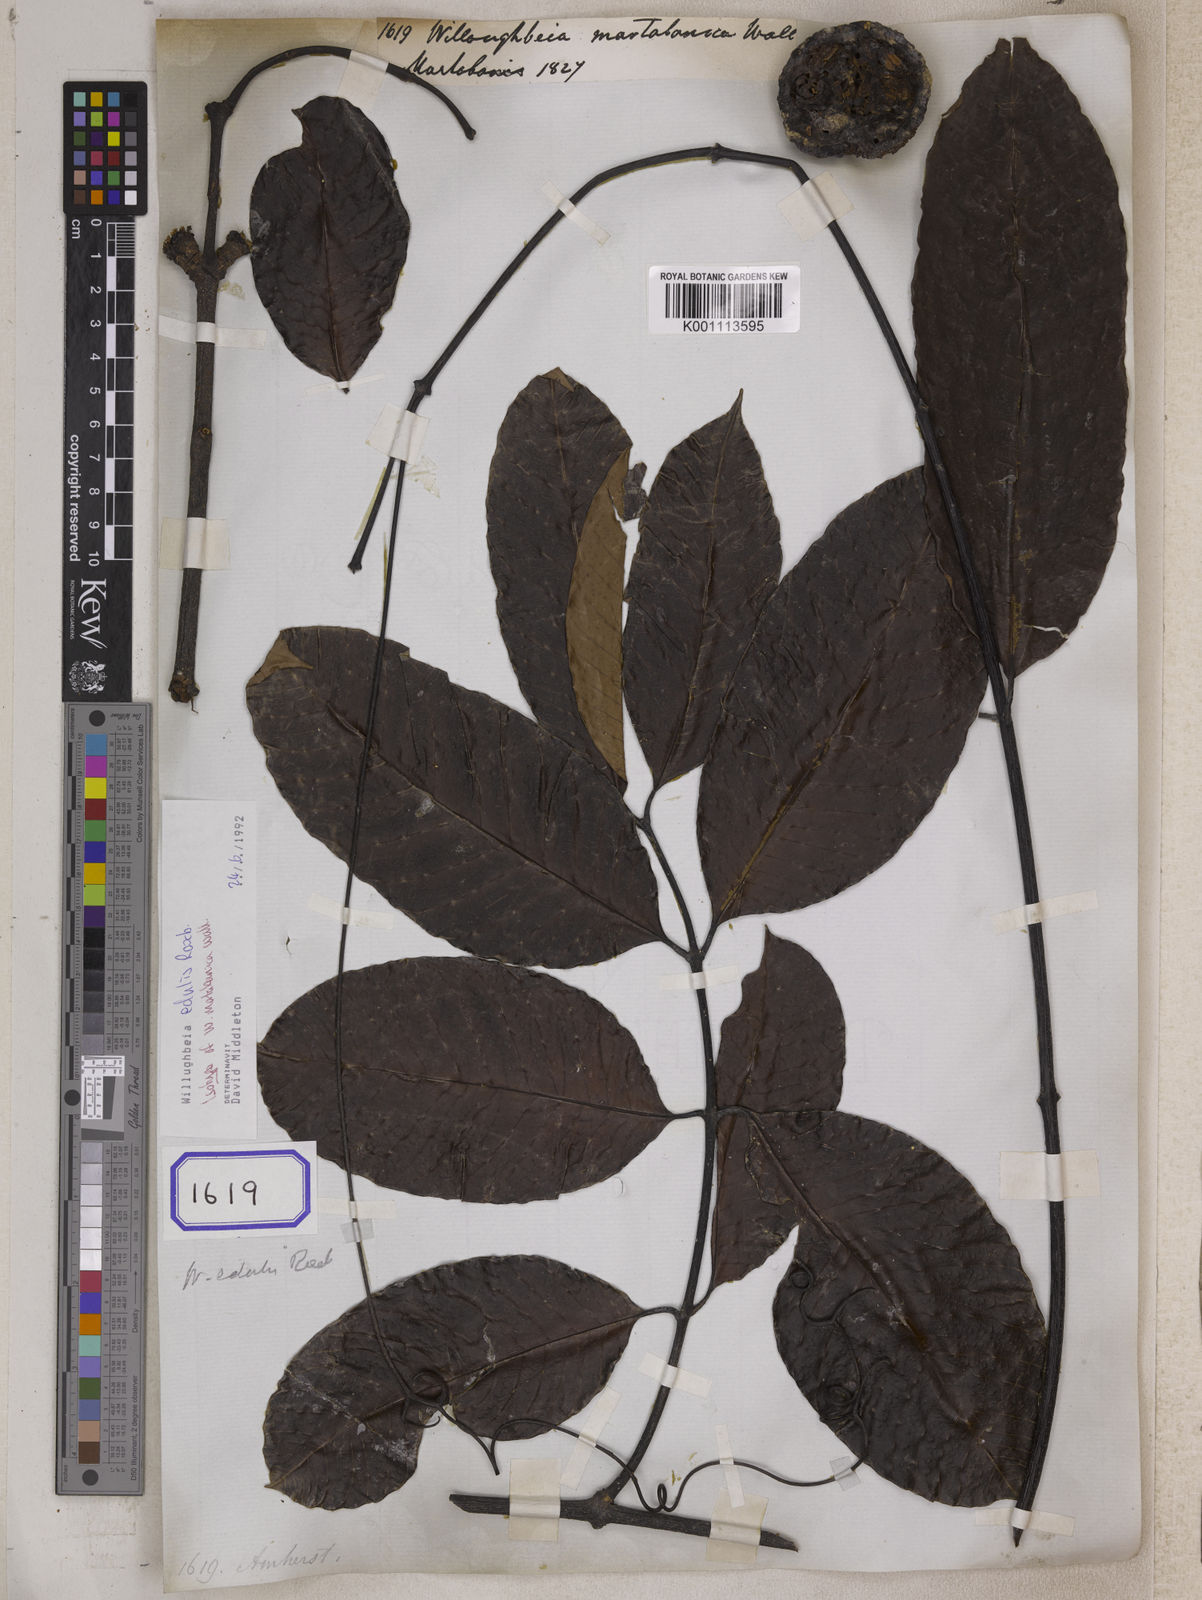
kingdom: Plantae
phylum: Tracheophyta
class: Magnoliopsida
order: Gentianales
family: Apocynaceae
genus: Willughbeia
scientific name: Willughbeia edulis
